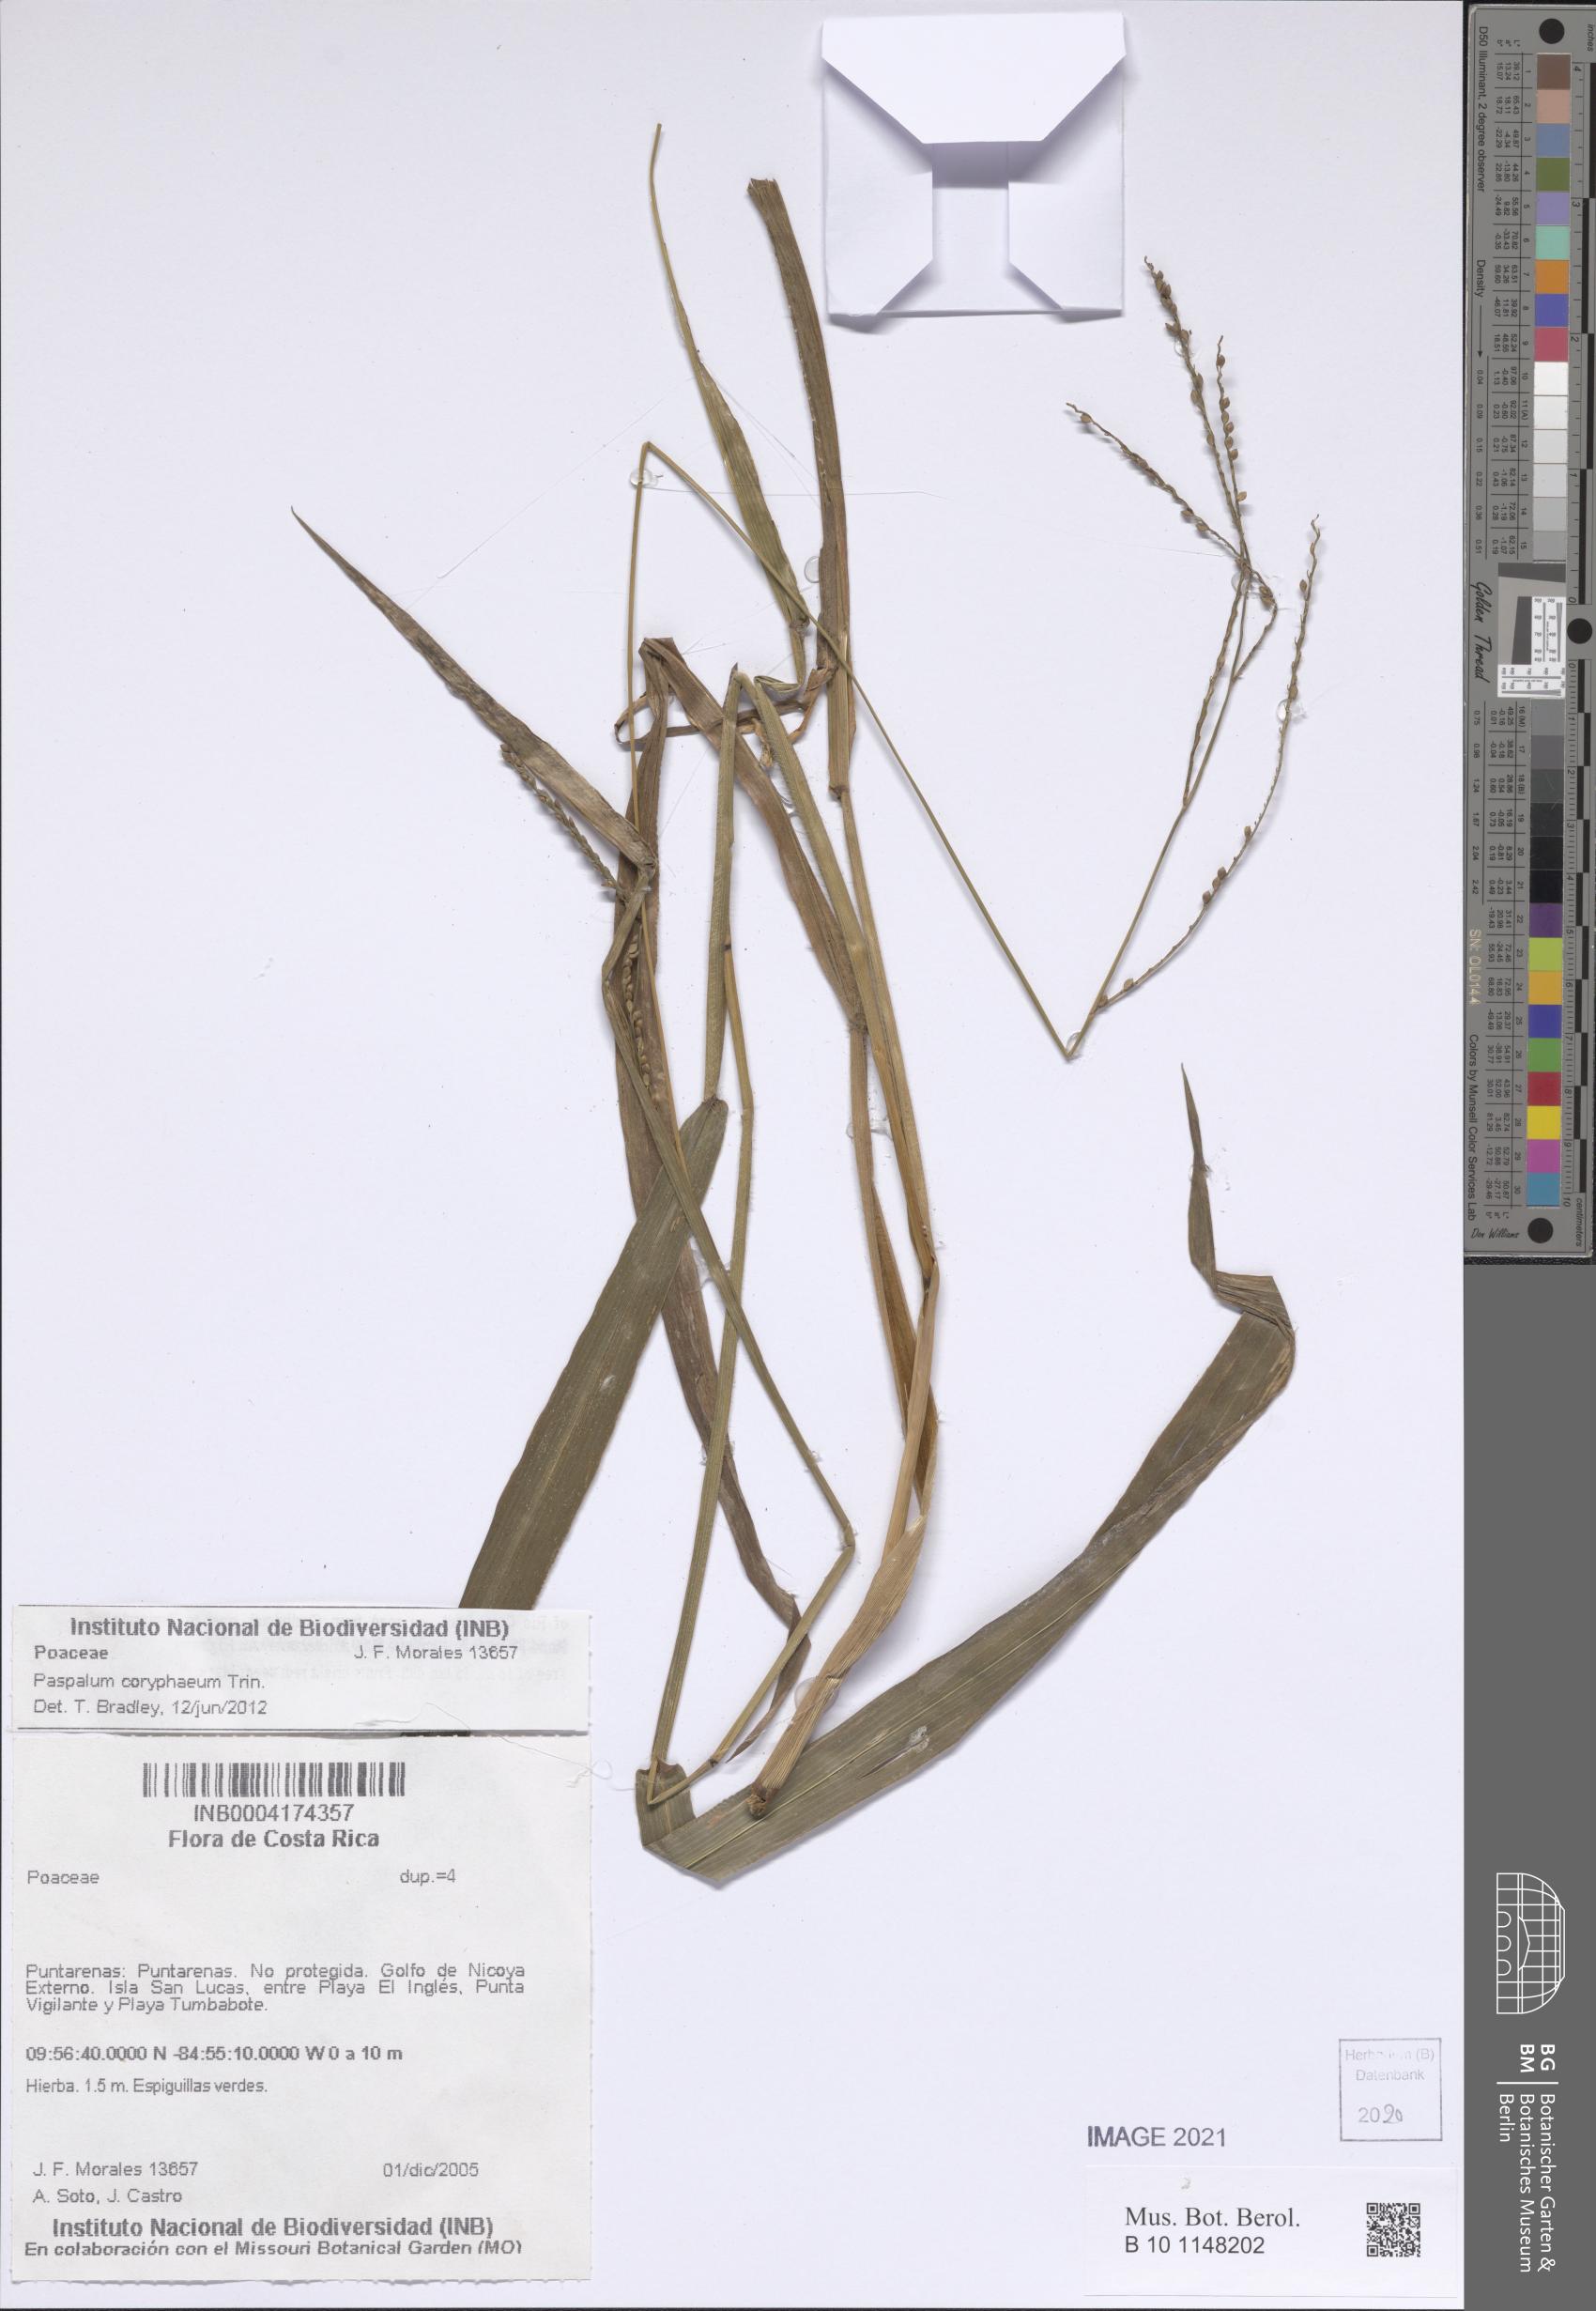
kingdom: Plantae
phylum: Tracheophyta
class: Liliopsida
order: Poales
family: Poaceae
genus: Paspalum
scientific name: Paspalum coryphaeum
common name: Emperor crowngrass
